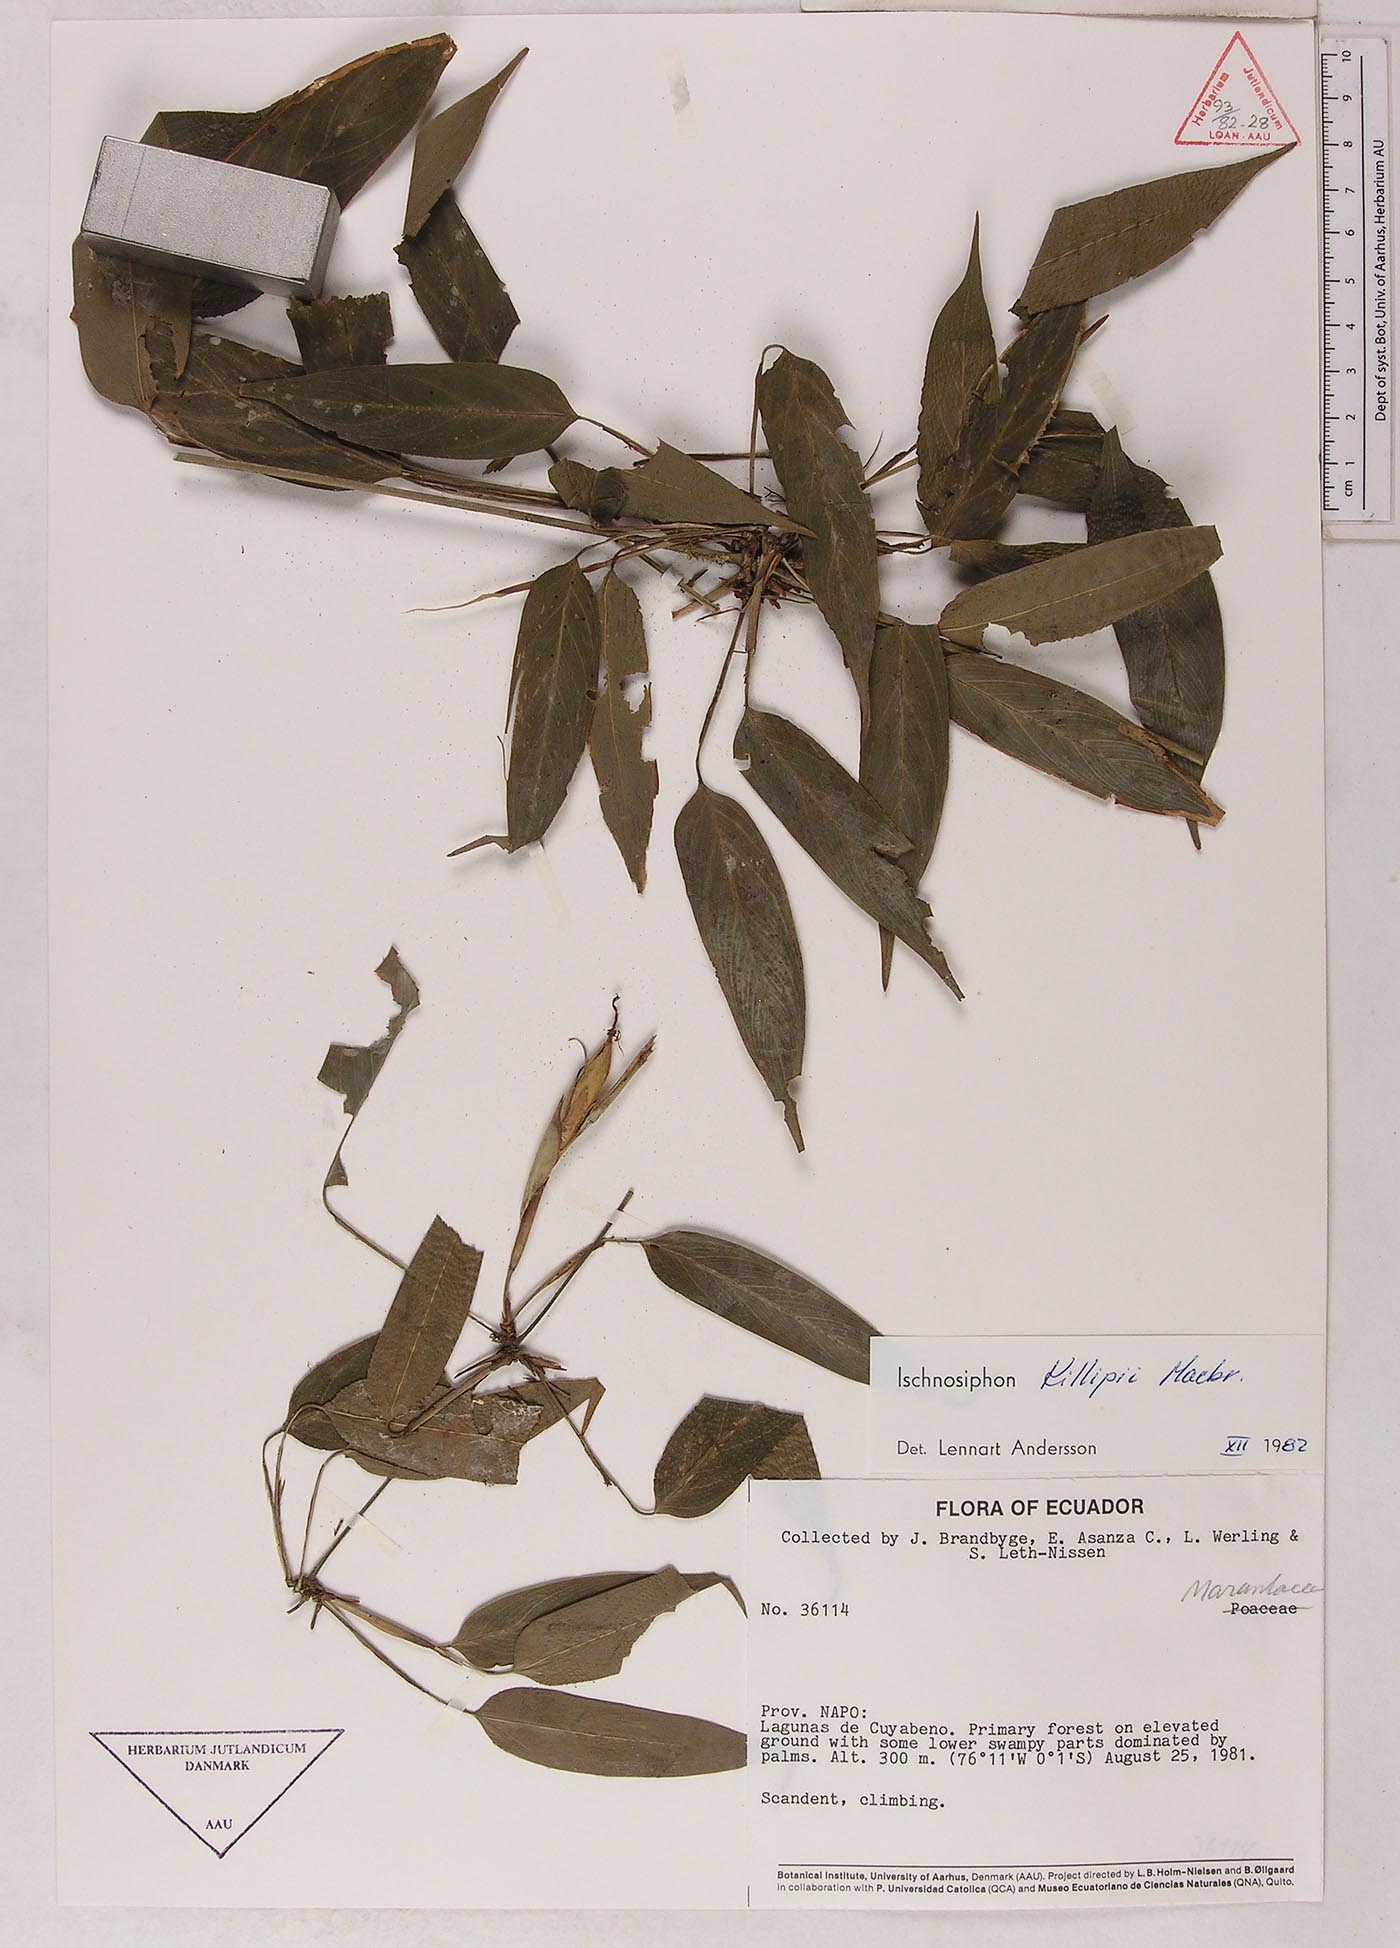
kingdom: Plantae
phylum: Tracheophyta
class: Liliopsida
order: Zingiberales
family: Marantaceae
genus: Ischnosiphon
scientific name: Ischnosiphon killipii
